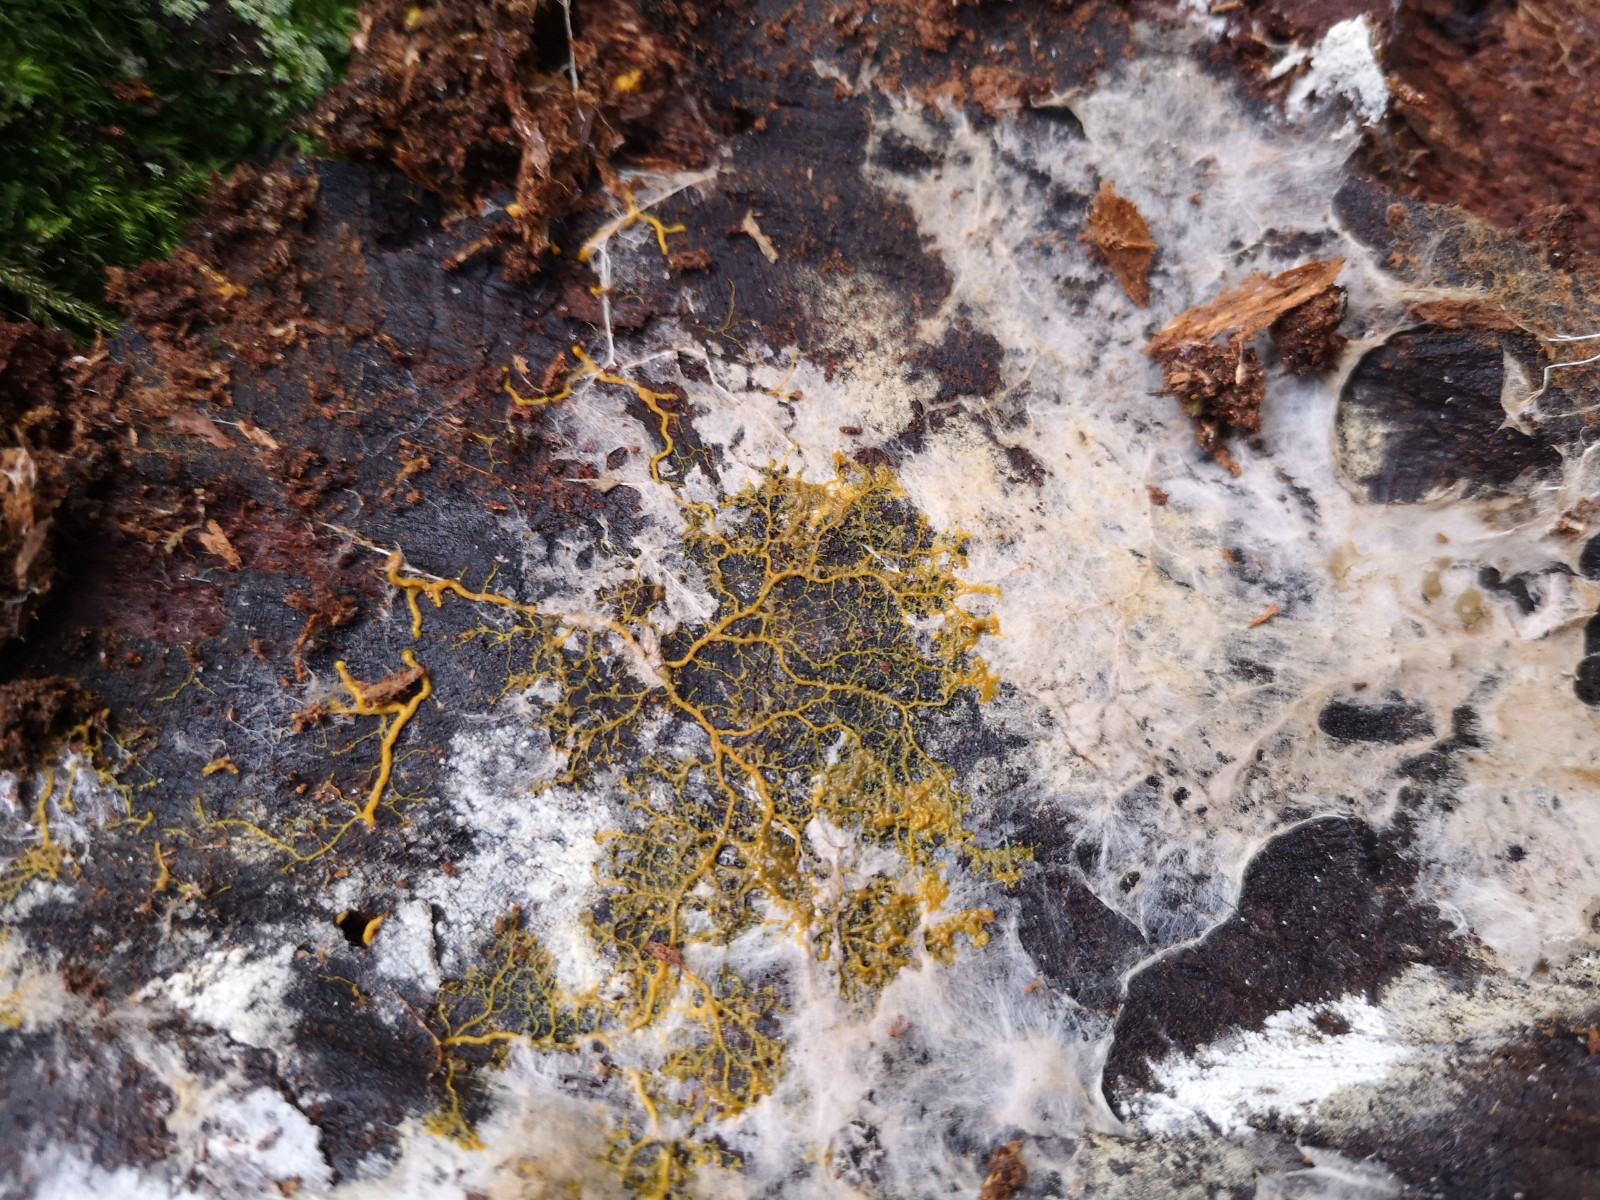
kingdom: Protozoa
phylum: Mycetozoa
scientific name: Mycetozoa
